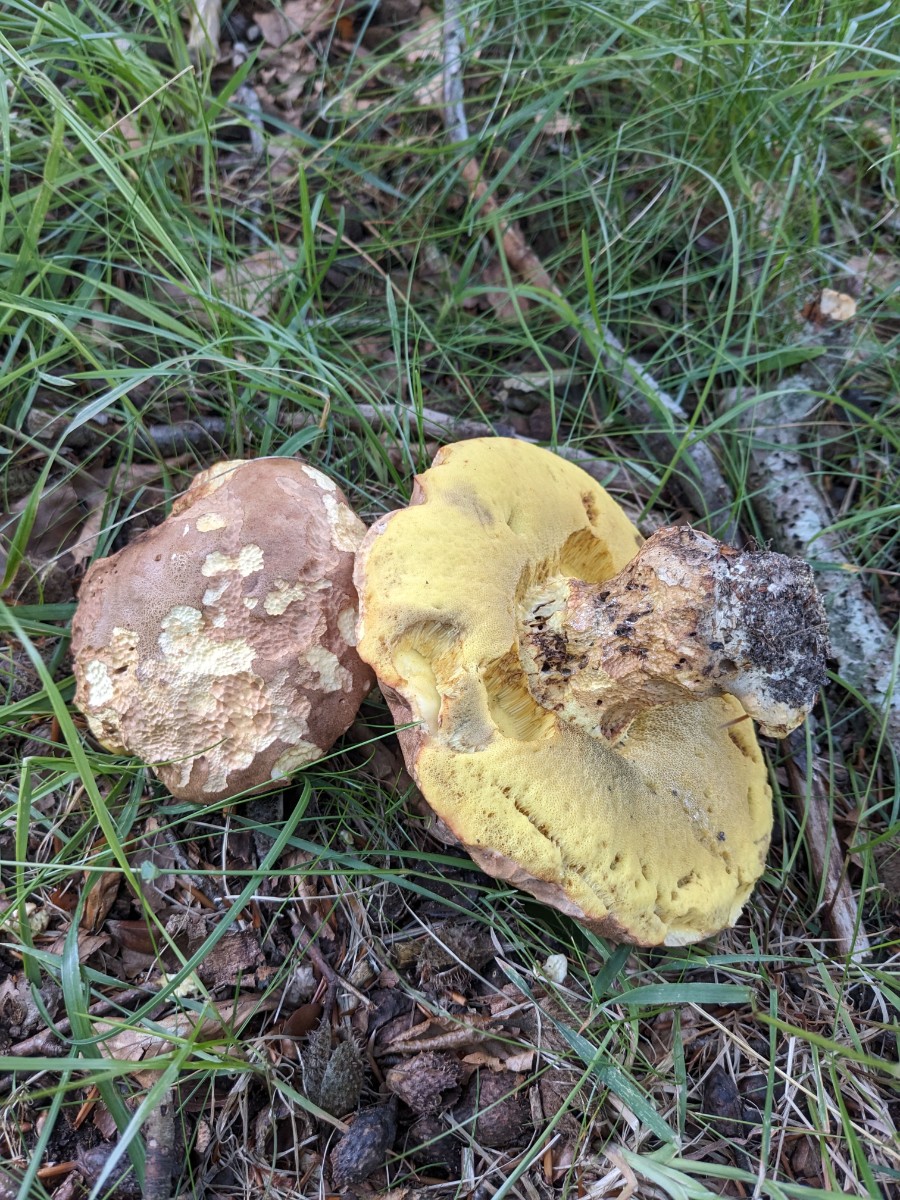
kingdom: Fungi
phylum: Basidiomycota
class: Agaricomycetes
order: Boletales
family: Boletaceae
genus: Butyriboletus
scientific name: Butyriboletus appendiculatus
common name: tenstokket rørhat
